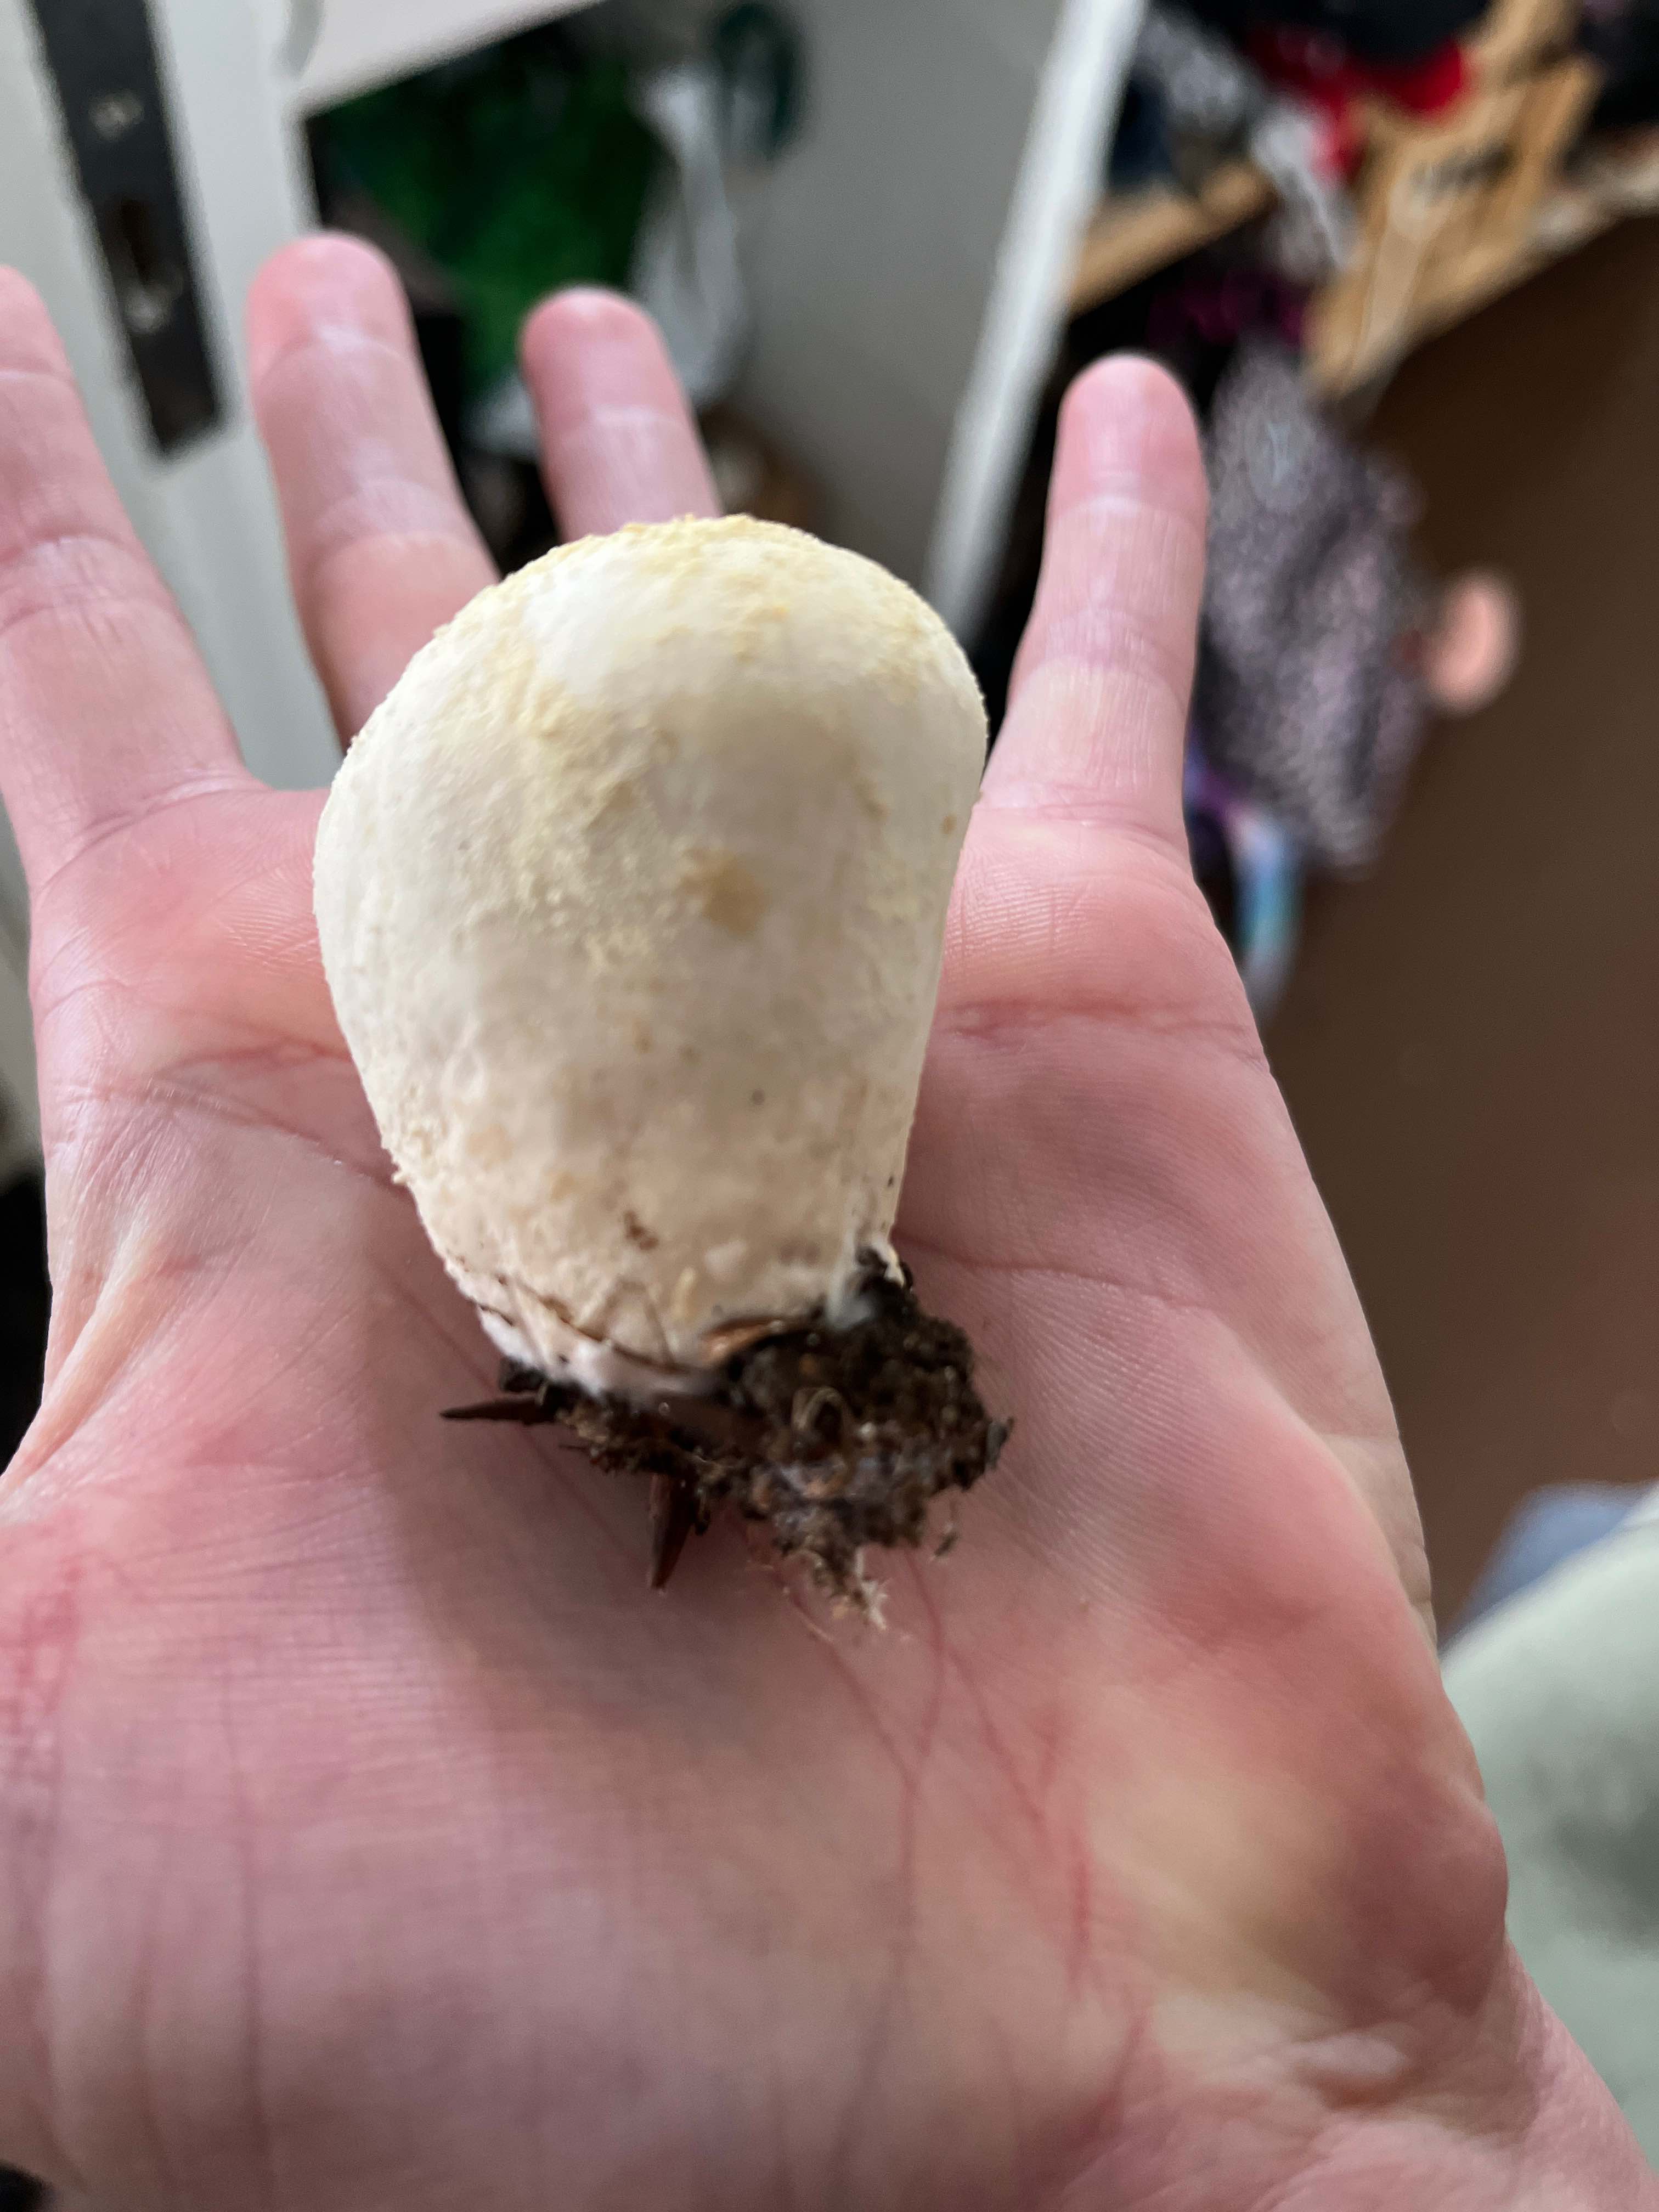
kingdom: Fungi
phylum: Basidiomycota
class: Agaricomycetes
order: Agaricales
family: Lycoperdaceae
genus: Lycoperdon
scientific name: Lycoperdon pratense
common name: flad støvbold
